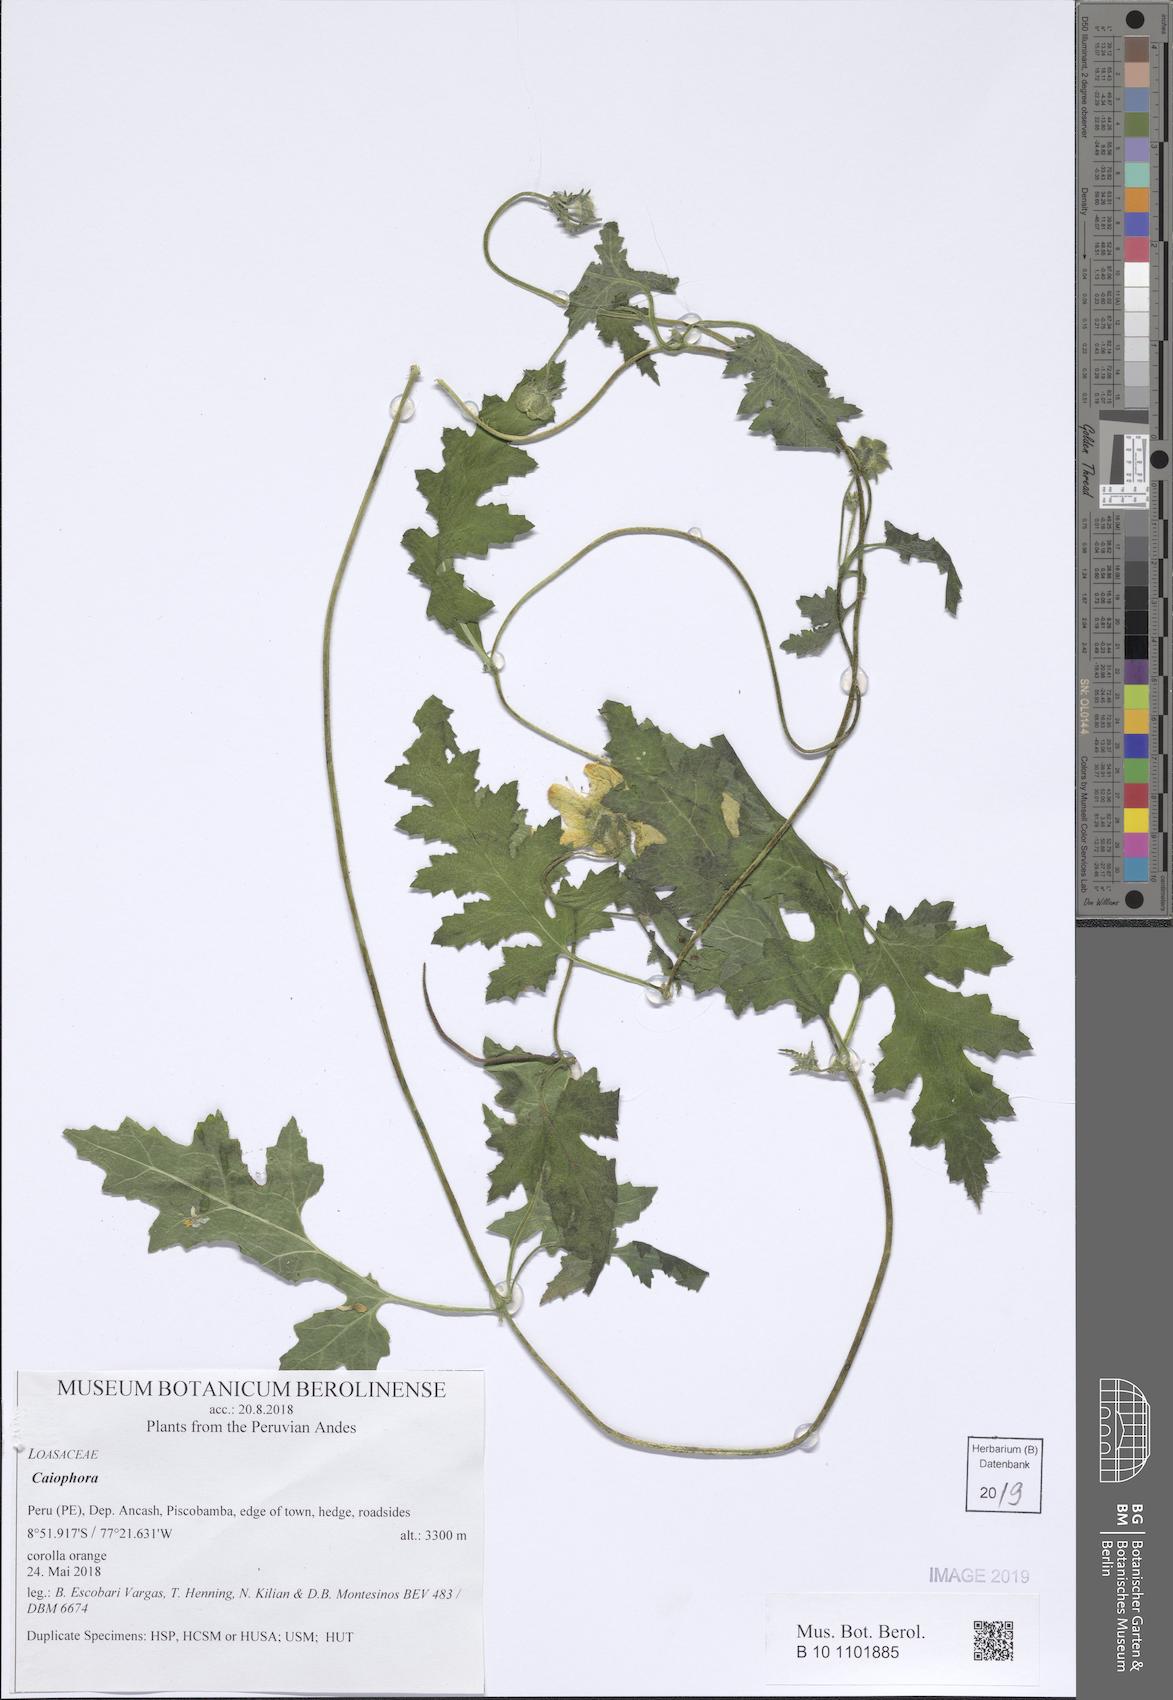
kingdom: Plantae
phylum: Tracheophyta
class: Magnoliopsida
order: Cornales
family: Loasaceae
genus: Caiophora
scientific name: Caiophora cirsiifolia
